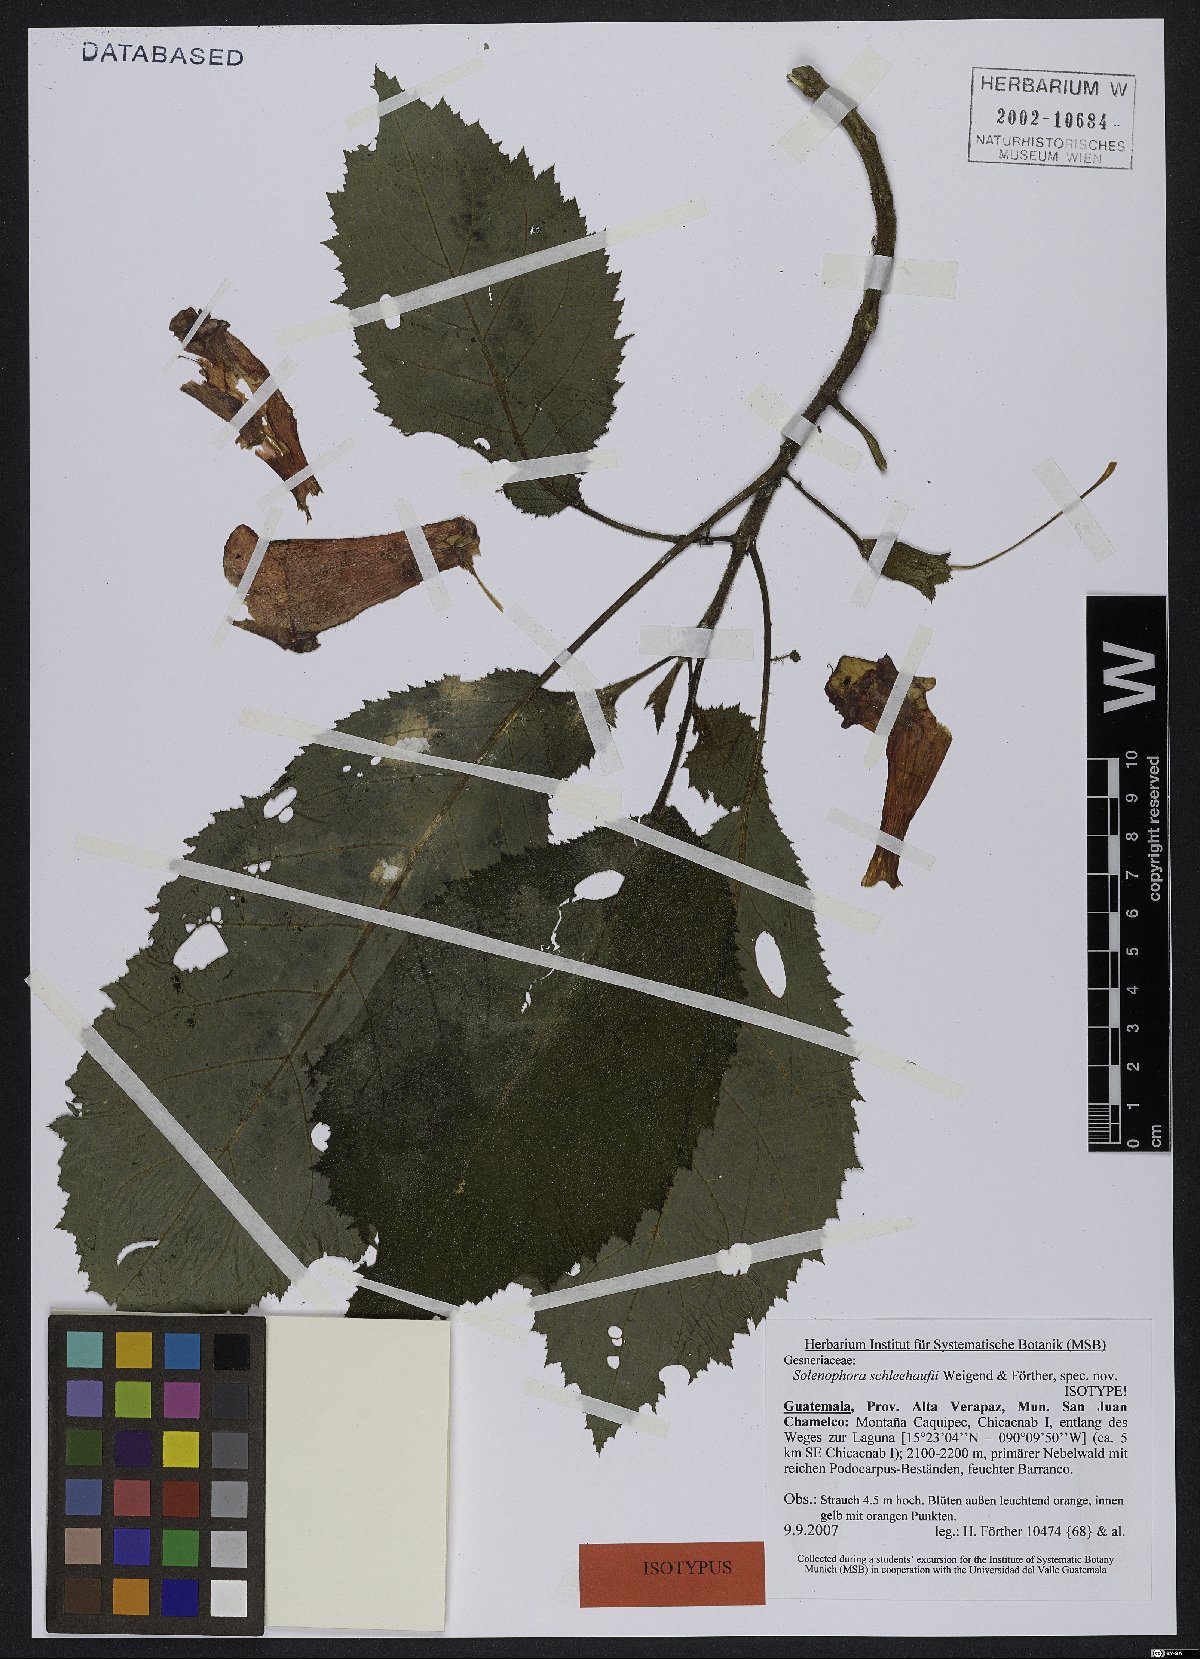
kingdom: Plantae
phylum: Tracheophyta
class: Magnoliopsida
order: Lamiales
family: Gesneriaceae
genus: Solenophora
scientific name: Solenophora schleehaufii
